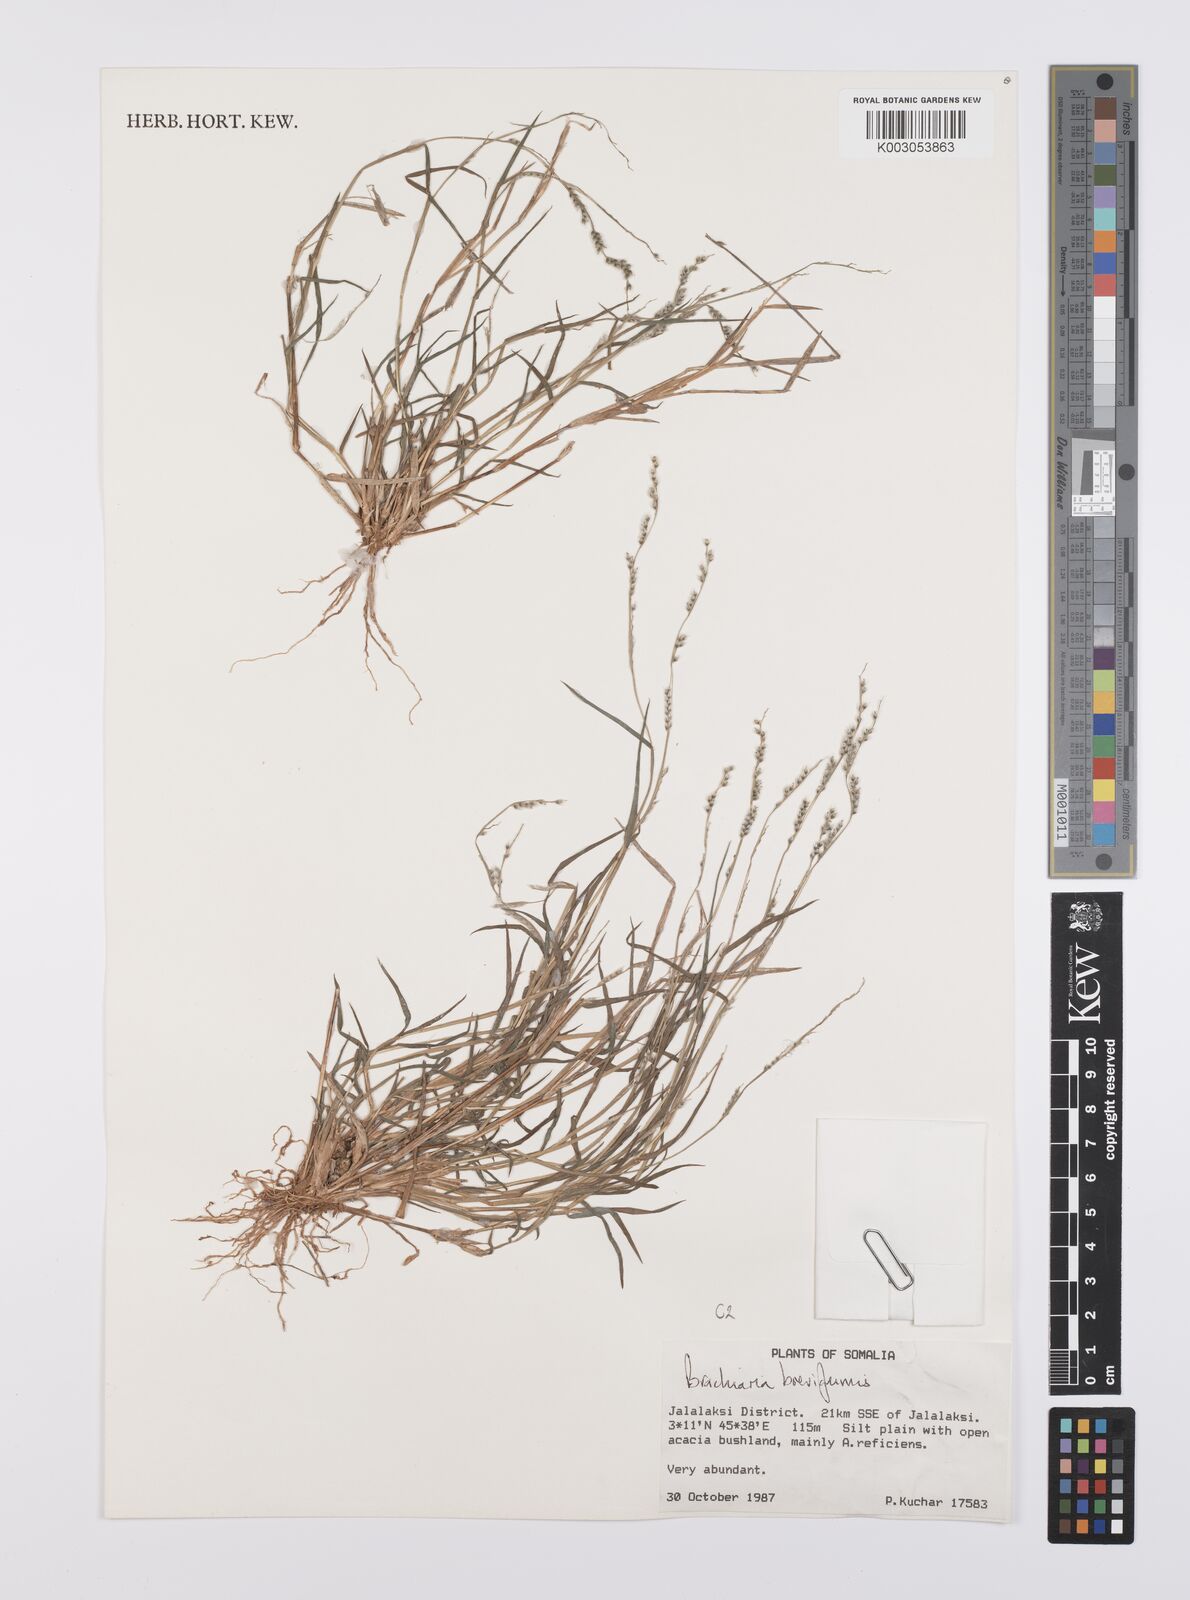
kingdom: Plantae
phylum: Tracheophyta
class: Liliopsida
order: Poales
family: Poaceae
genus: Urochloa
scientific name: Urochloa Brachiaria breviglumis
